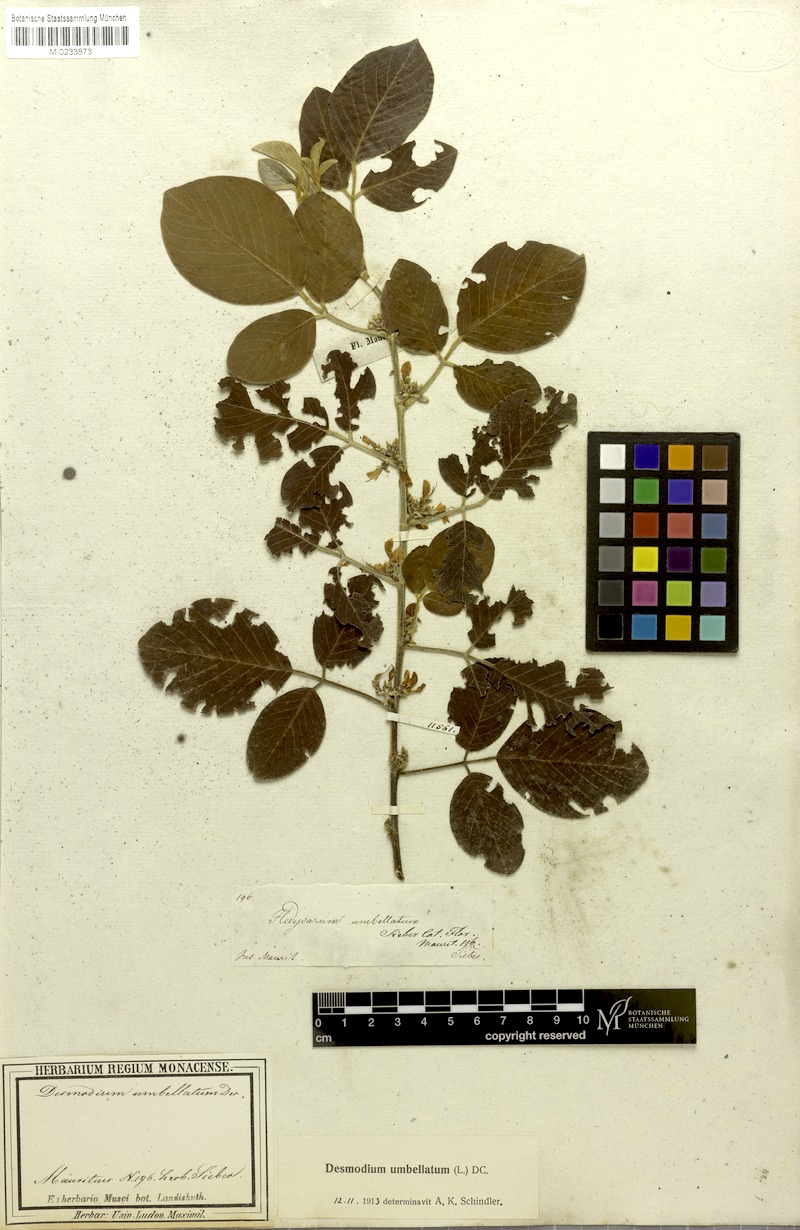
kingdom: Plantae
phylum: Tracheophyta
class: Magnoliopsida
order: Fabales
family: Fabaceae
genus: Dendrolobium
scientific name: Dendrolobium umbellatum
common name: Horsebush
